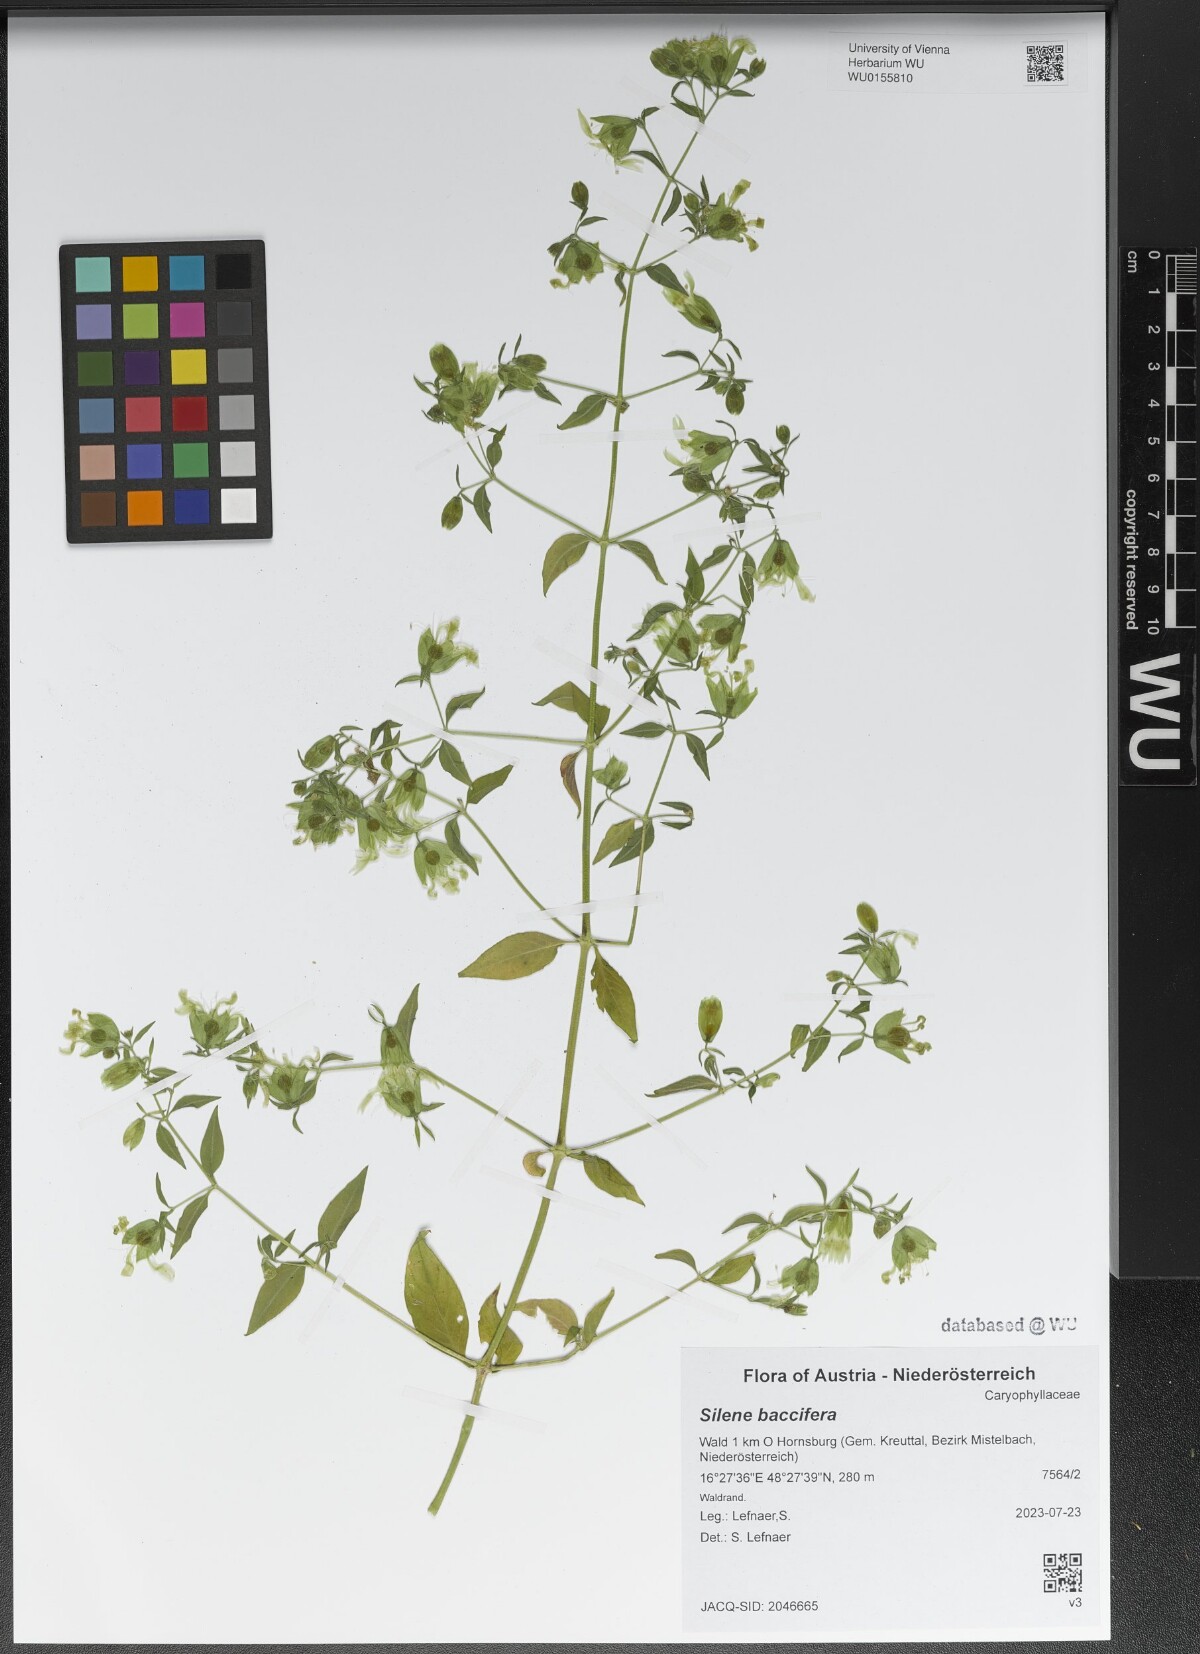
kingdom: Plantae
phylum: Tracheophyta
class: Magnoliopsida
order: Caryophyllales
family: Caryophyllaceae
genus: Silene
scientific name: Silene baccifera
